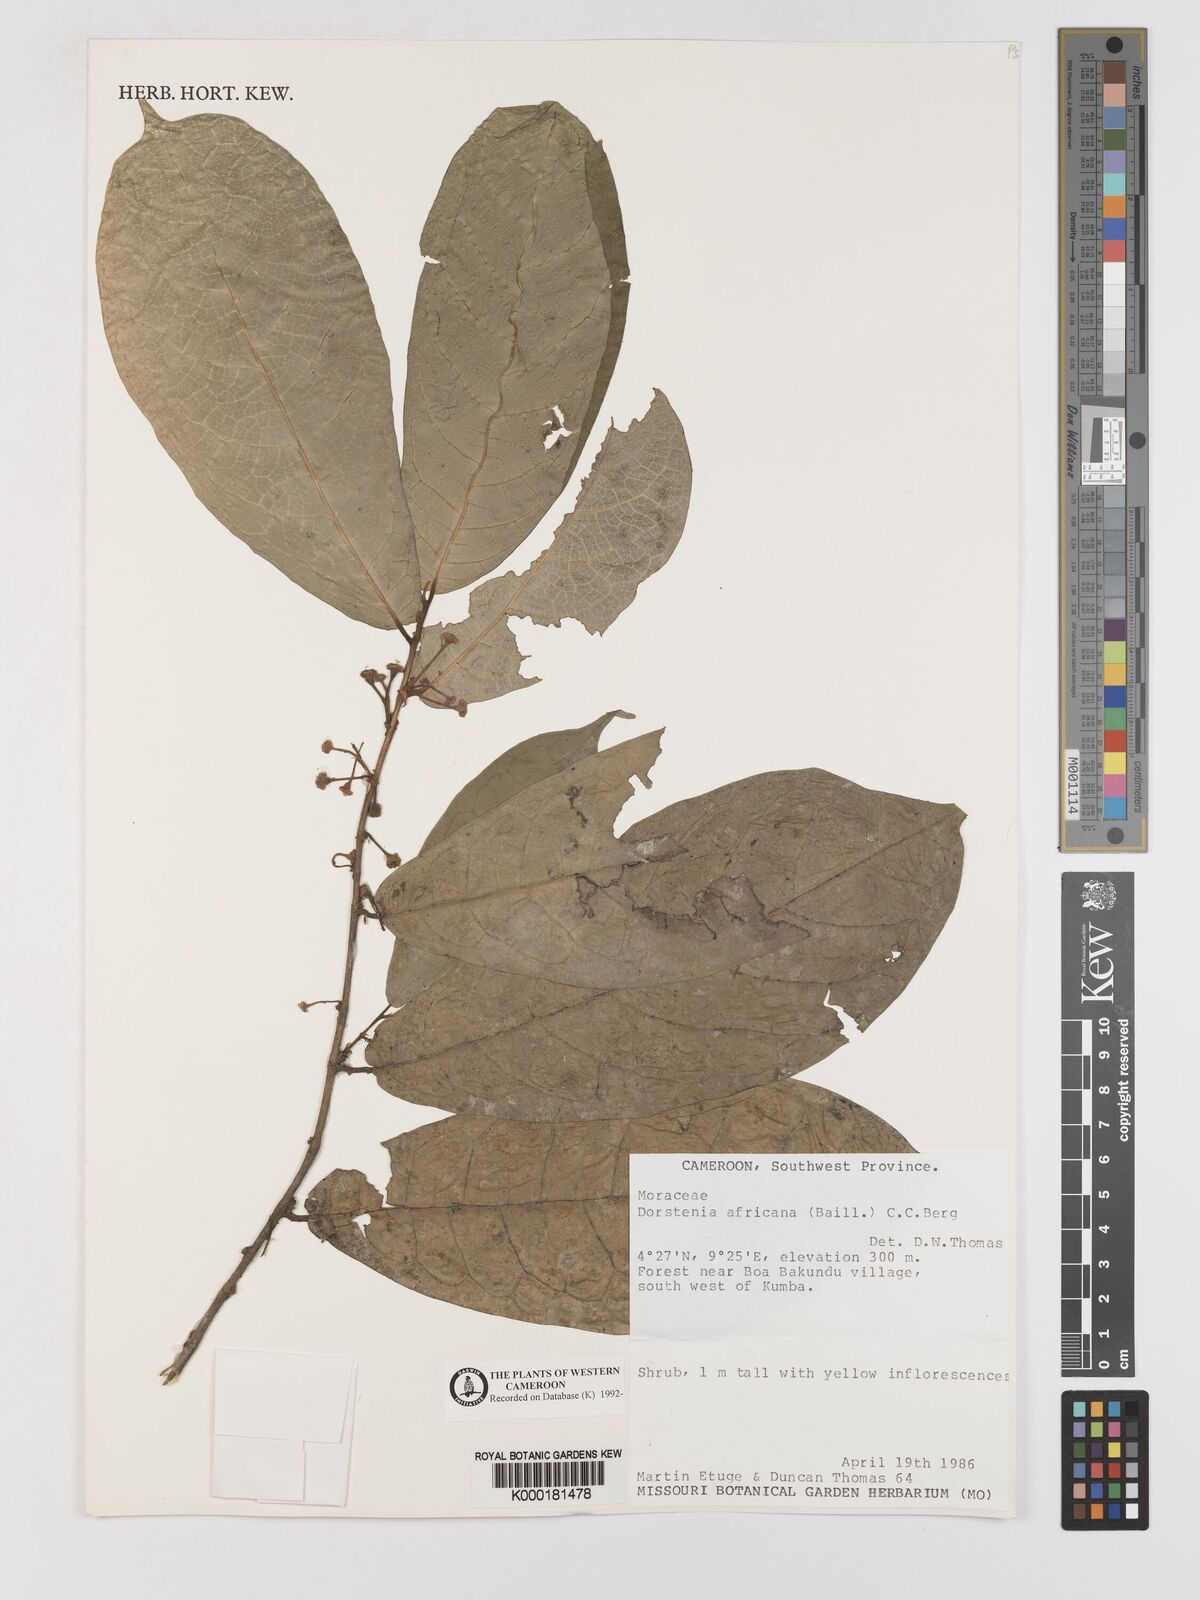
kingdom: Plantae
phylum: Tracheophyta
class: Magnoliopsida
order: Rosales
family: Moraceae
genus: Dorstenia
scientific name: Dorstenia africana
